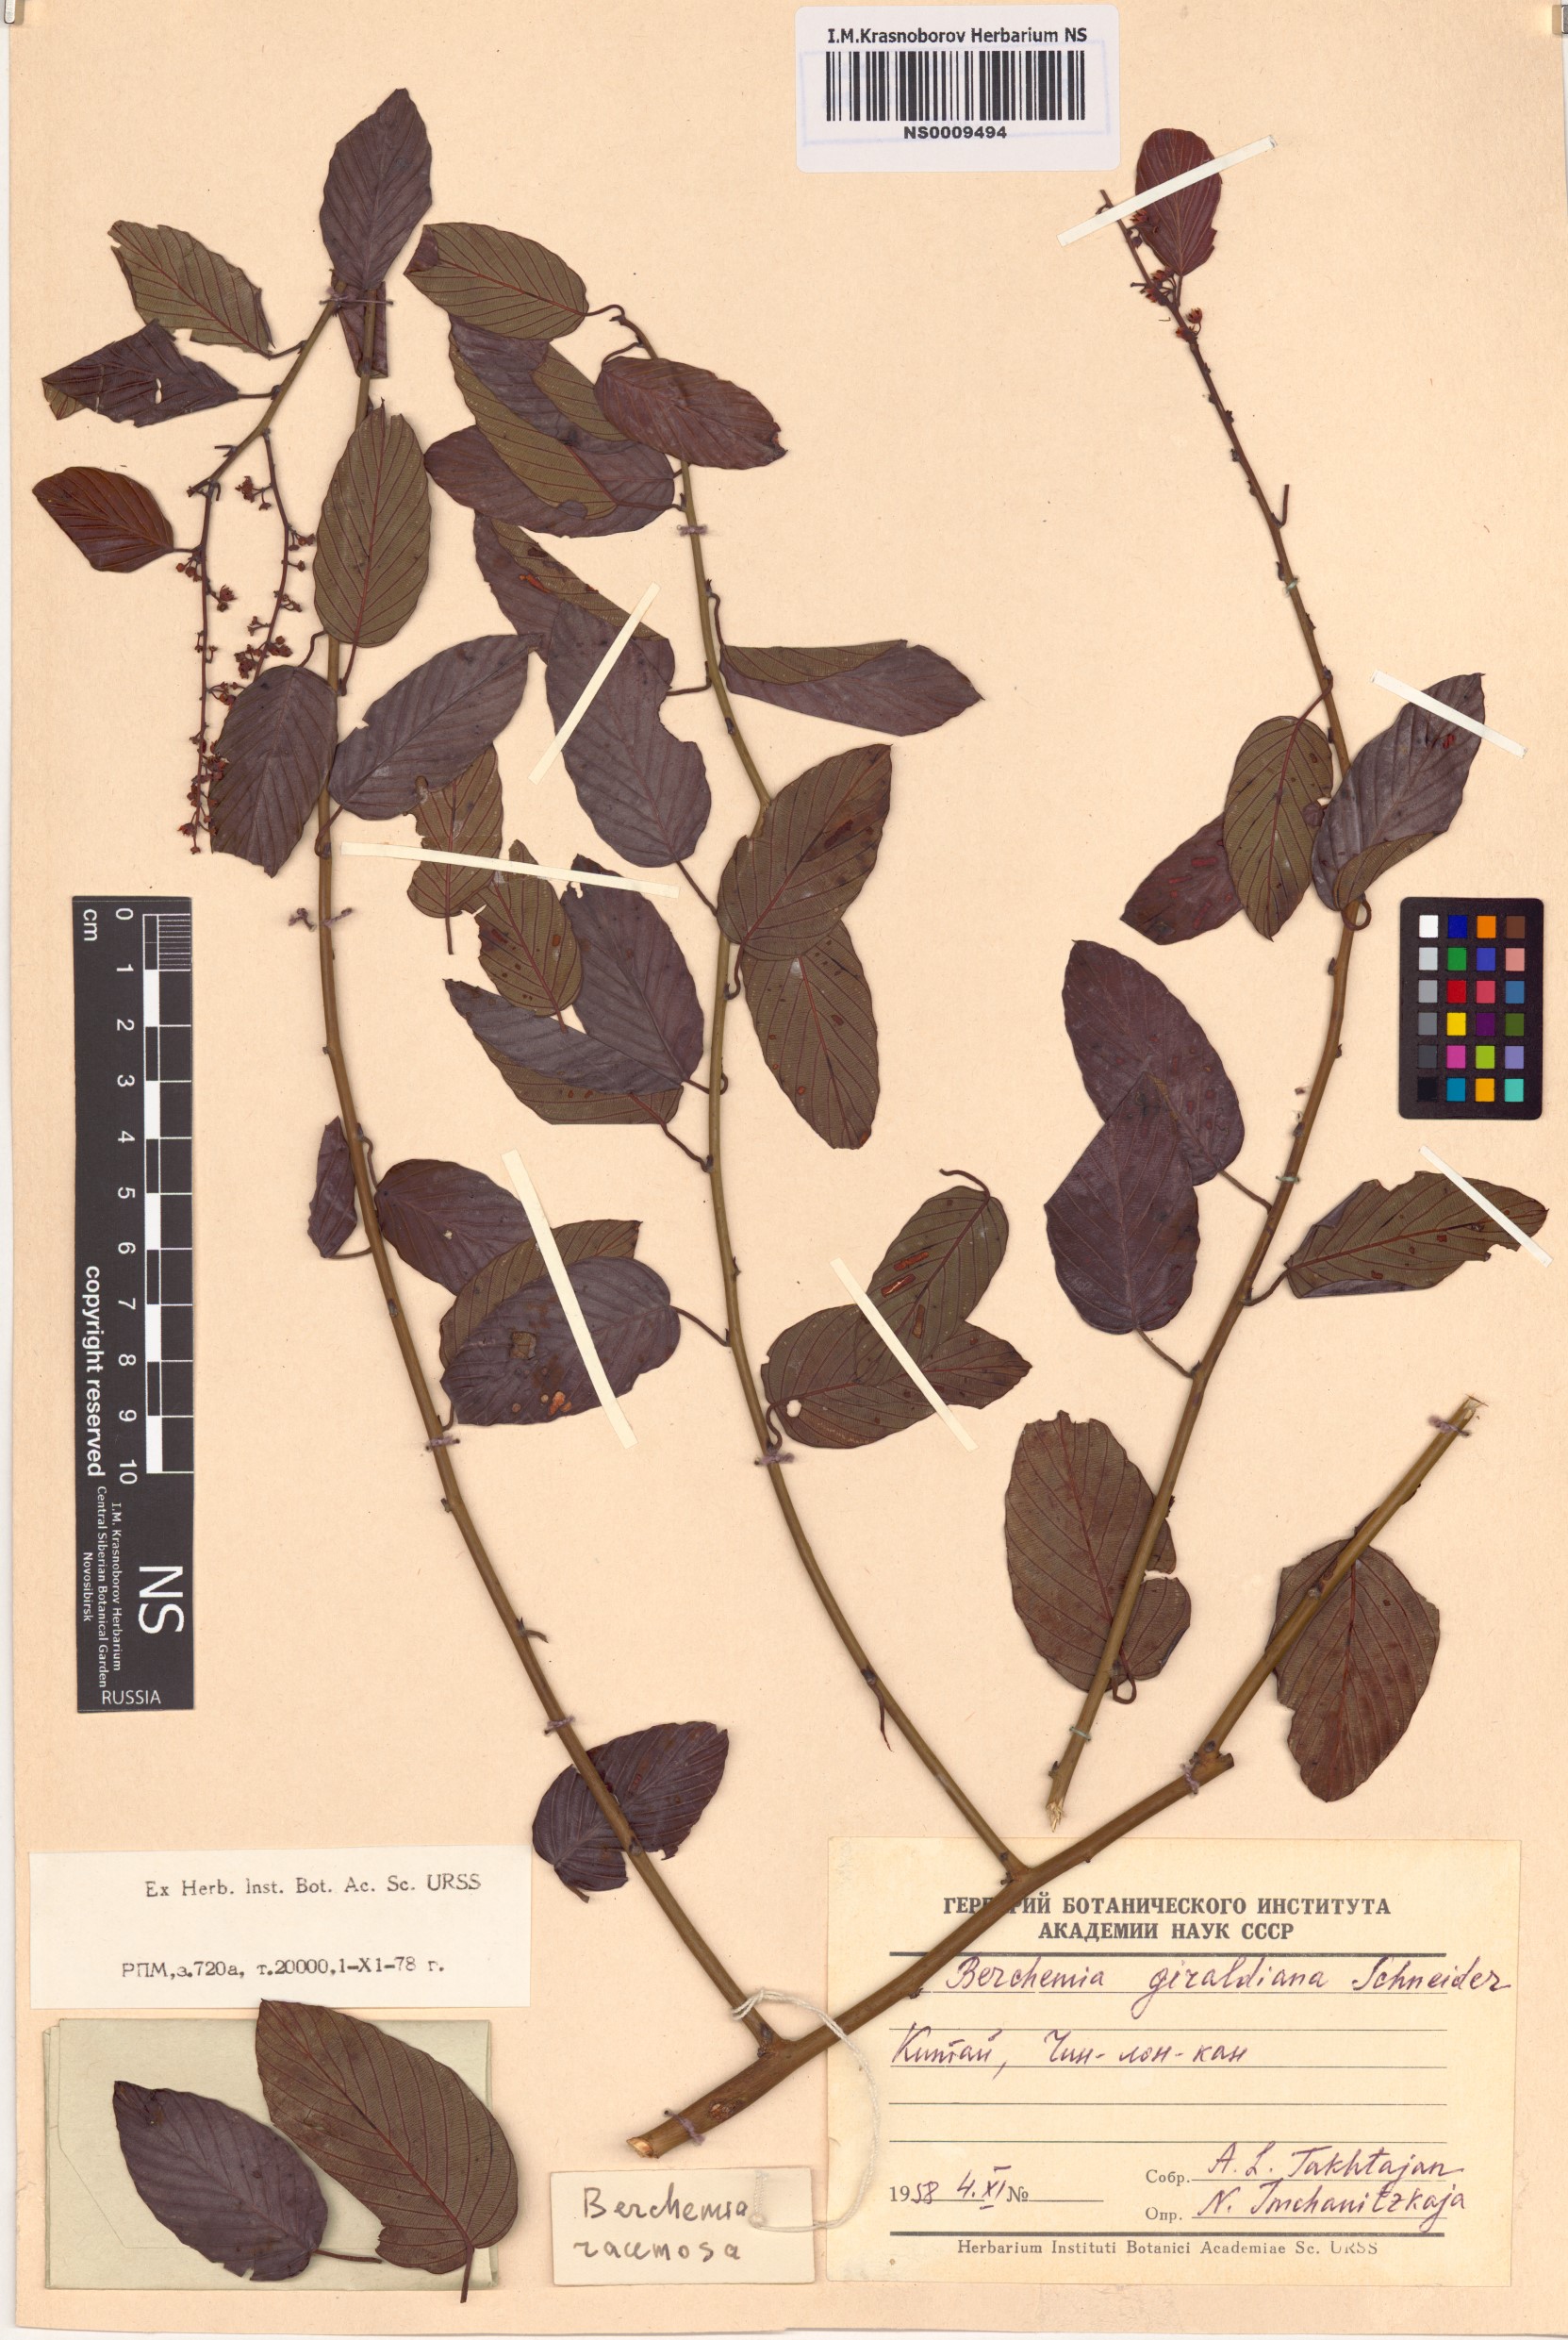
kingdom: Plantae
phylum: Tracheophyta
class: Magnoliopsida
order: Rosales
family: Rhamnaceae
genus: Berchemia
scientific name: Berchemia giraldiana
